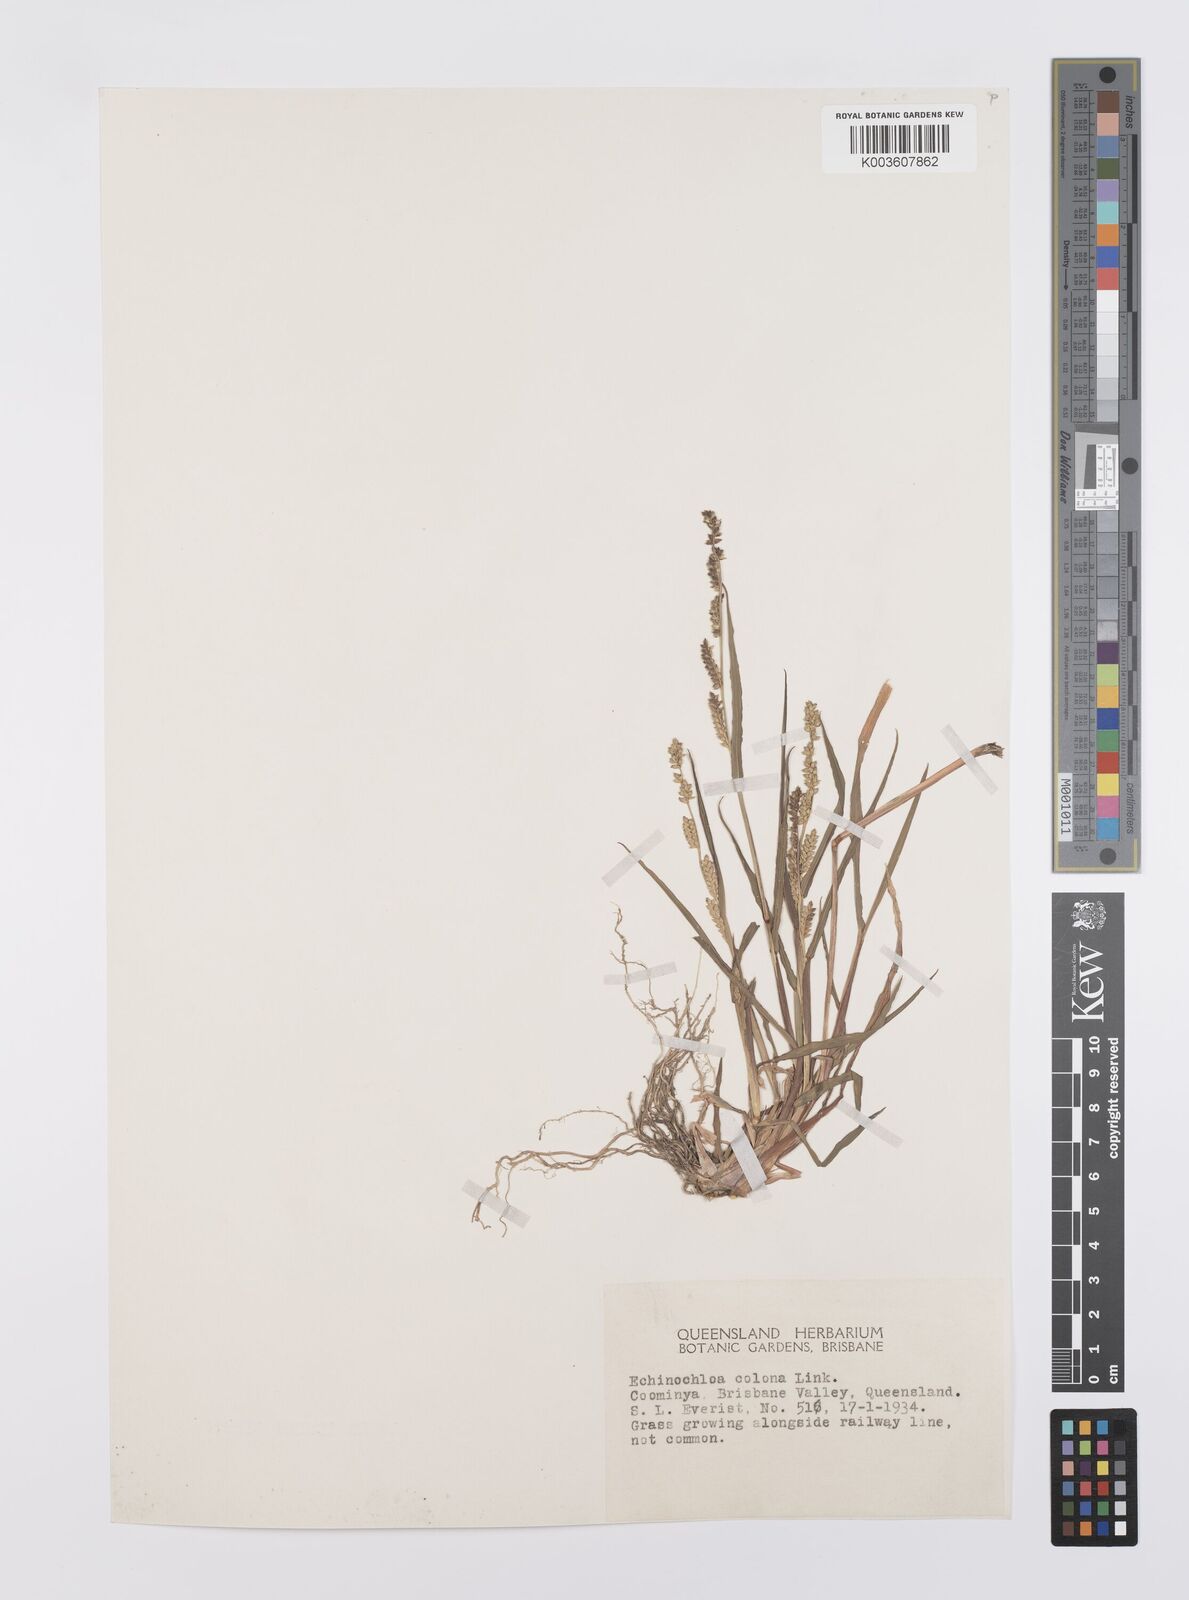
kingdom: Plantae
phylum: Tracheophyta
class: Liliopsida
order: Poales
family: Poaceae
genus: Echinochloa
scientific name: Echinochloa colonum
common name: Jungle rice
